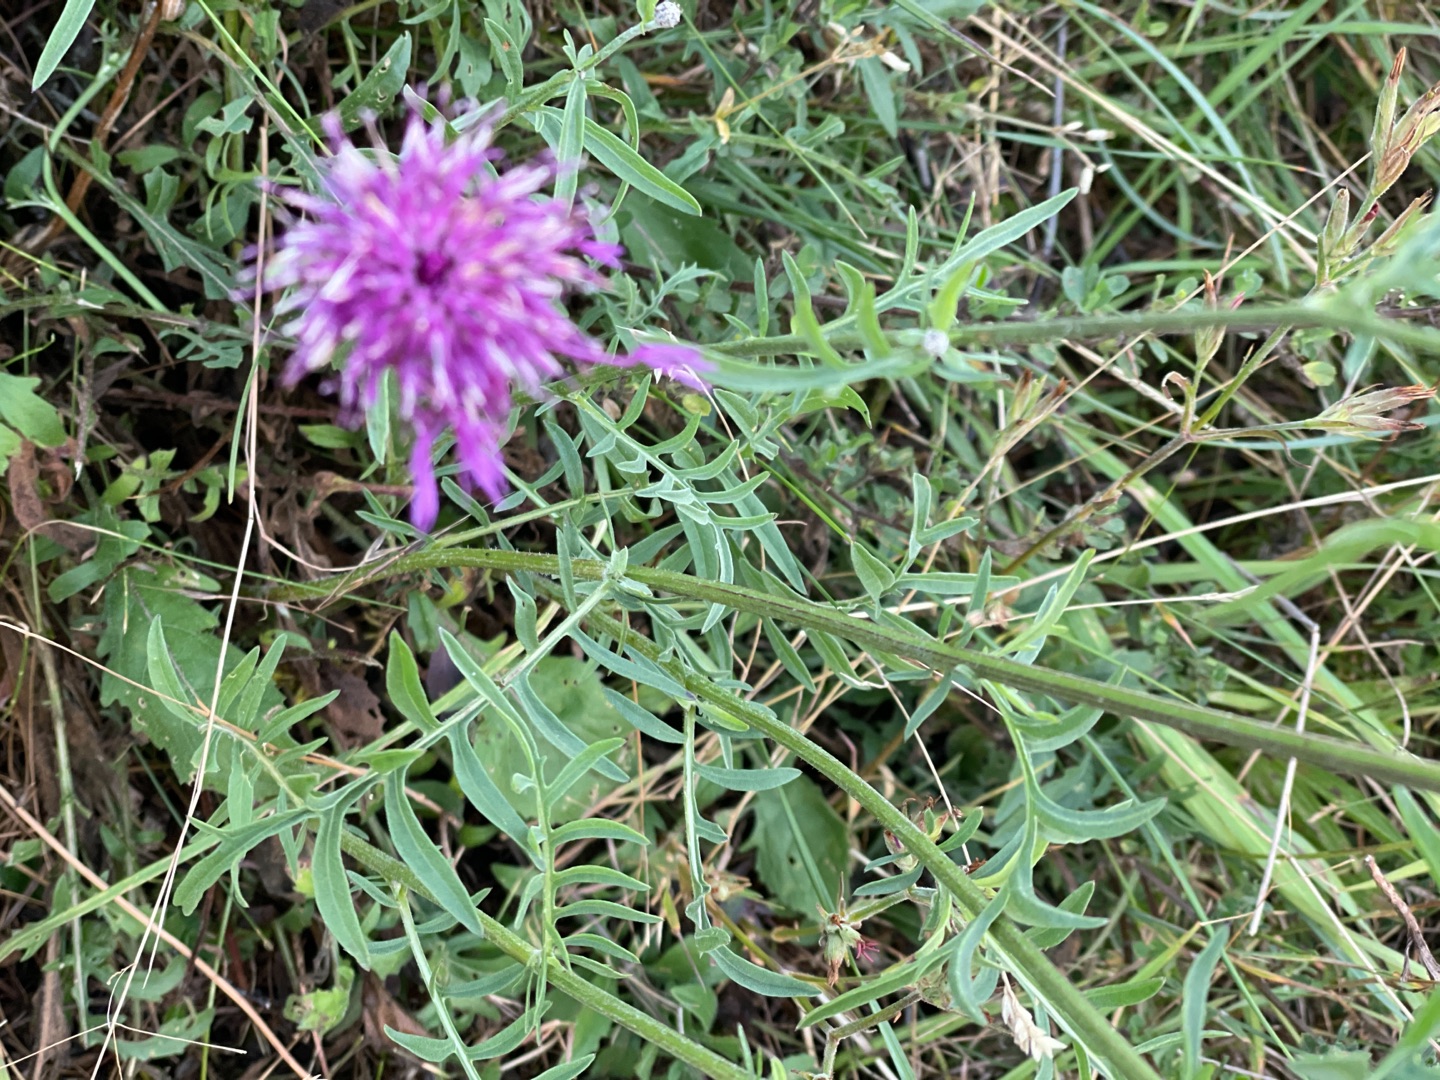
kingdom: Plantae
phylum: Tracheophyta
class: Magnoliopsida
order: Asterales
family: Asteraceae
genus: Centaurea
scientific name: Centaurea scabiosa
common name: Stor knopurt
